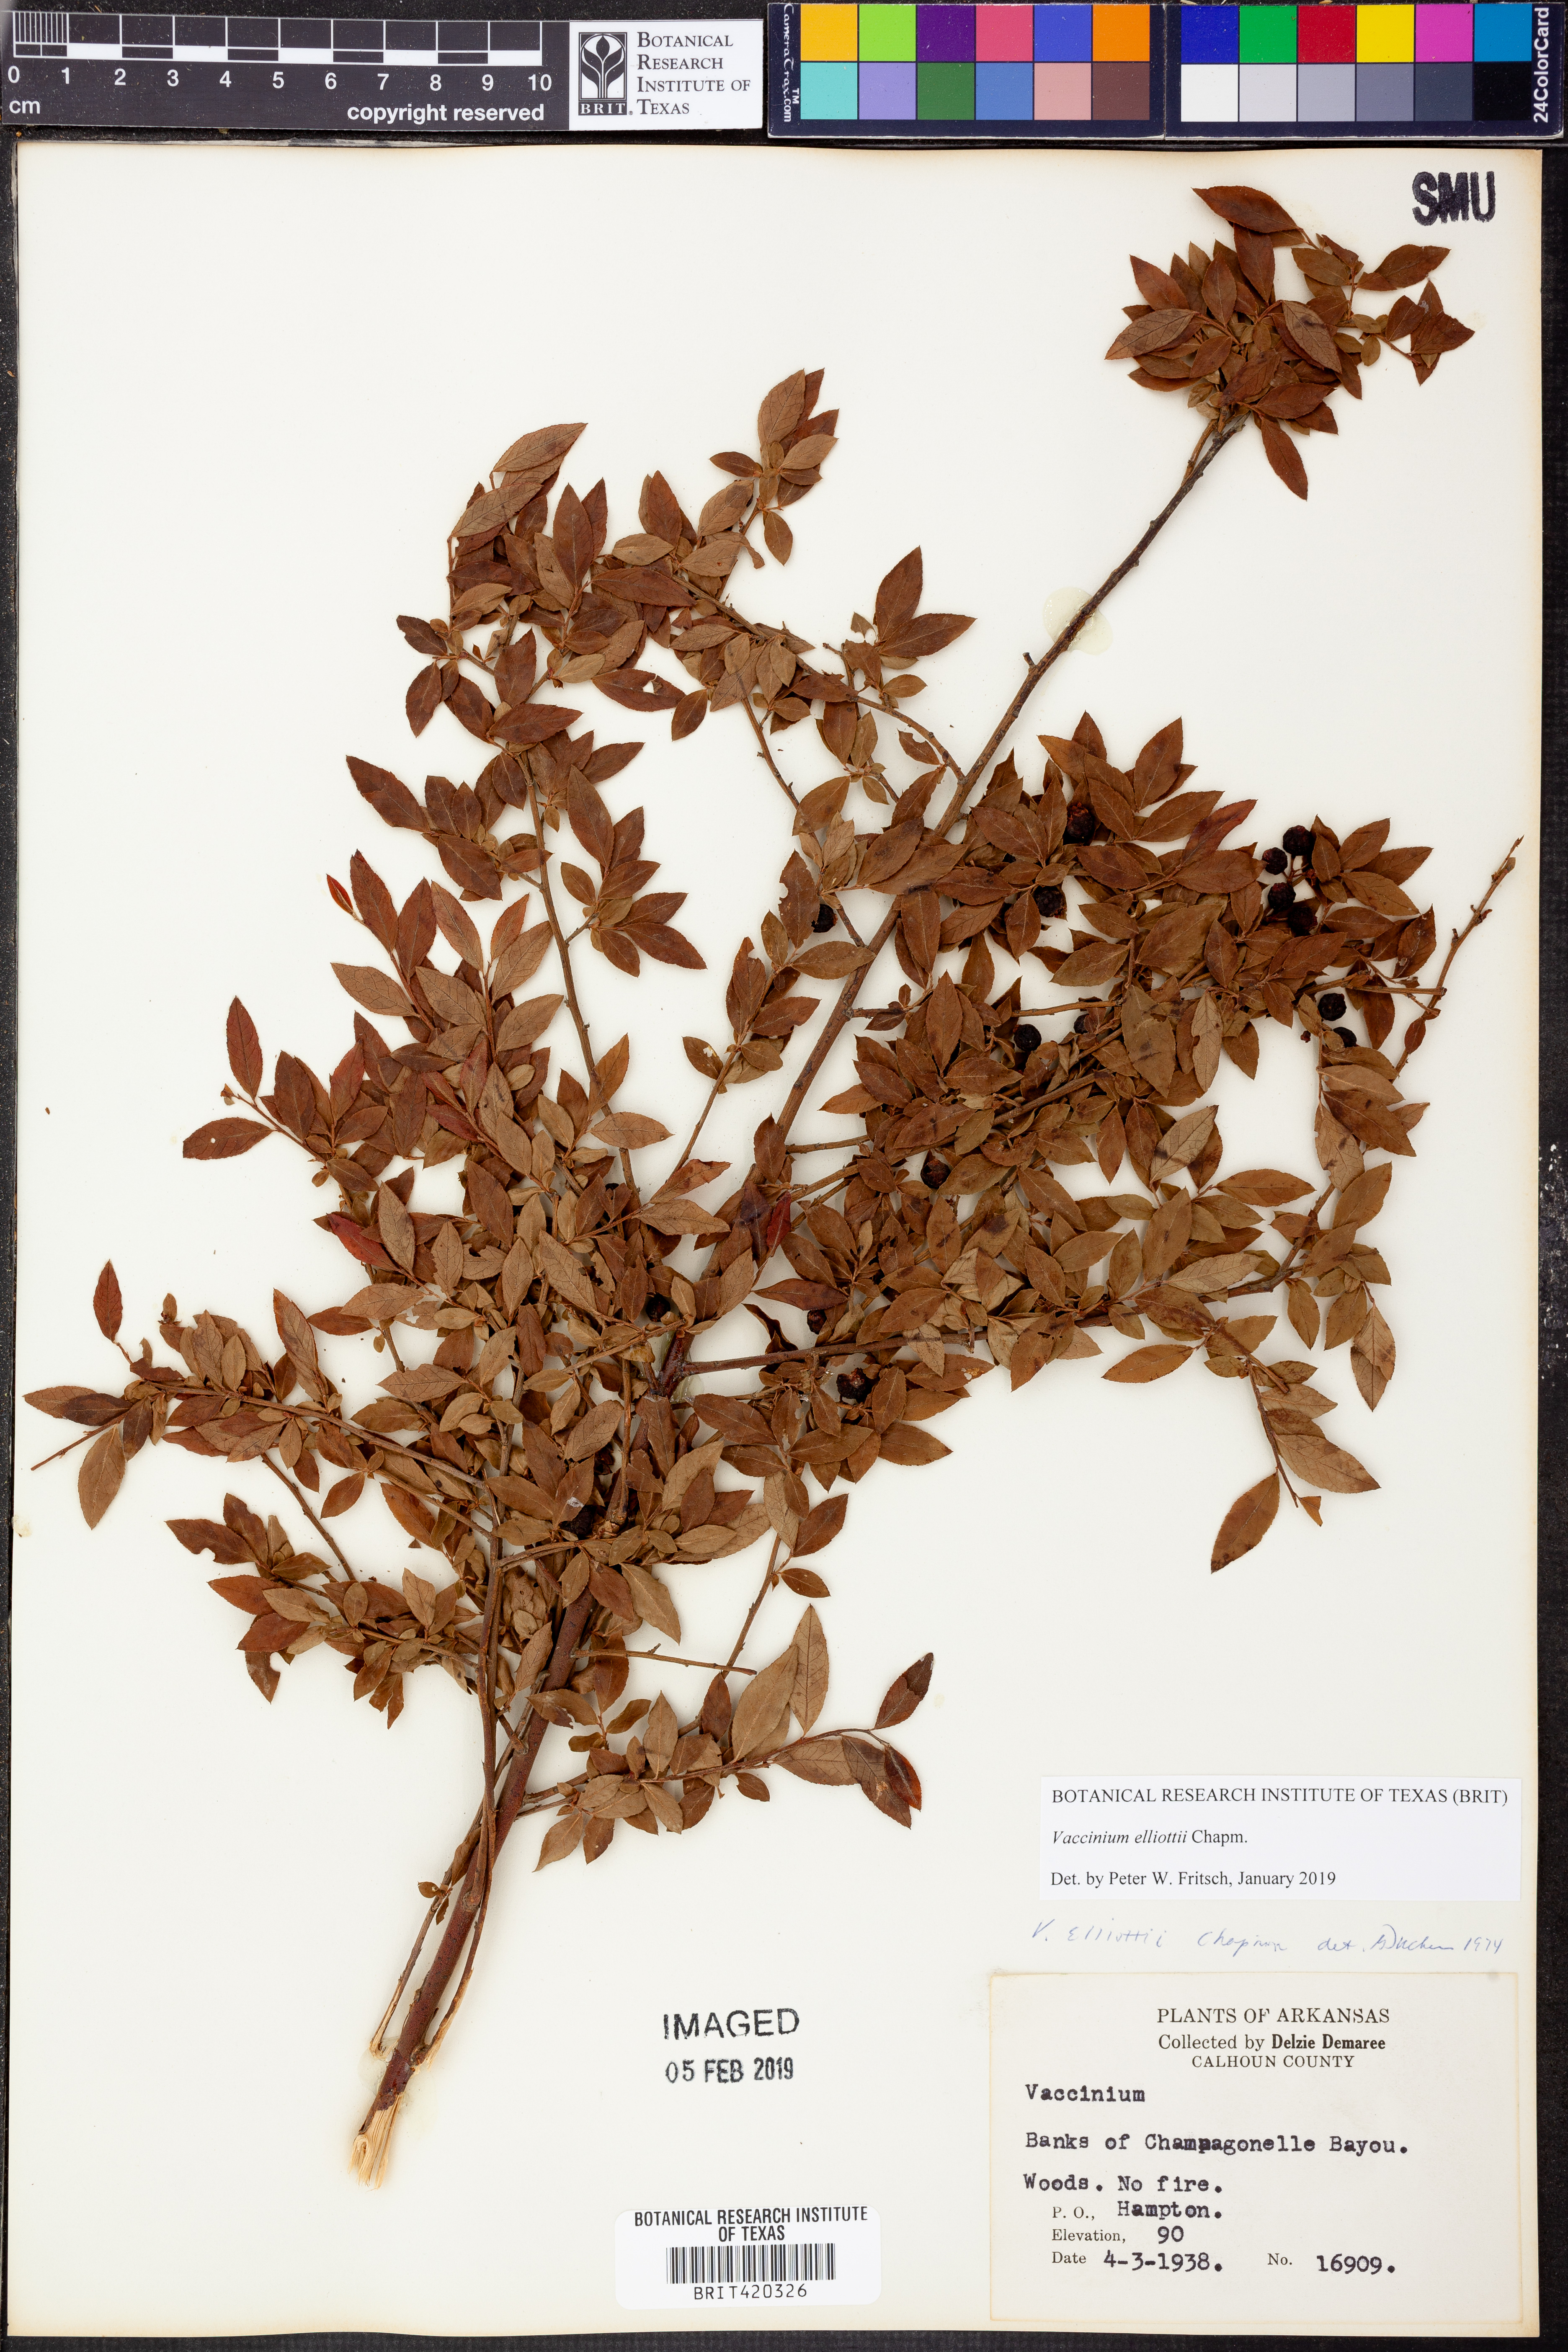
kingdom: Plantae
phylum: Tracheophyta
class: Magnoliopsida
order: Ericales
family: Ericaceae
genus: Vaccinium
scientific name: Vaccinium corymbosum
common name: Blueberry
